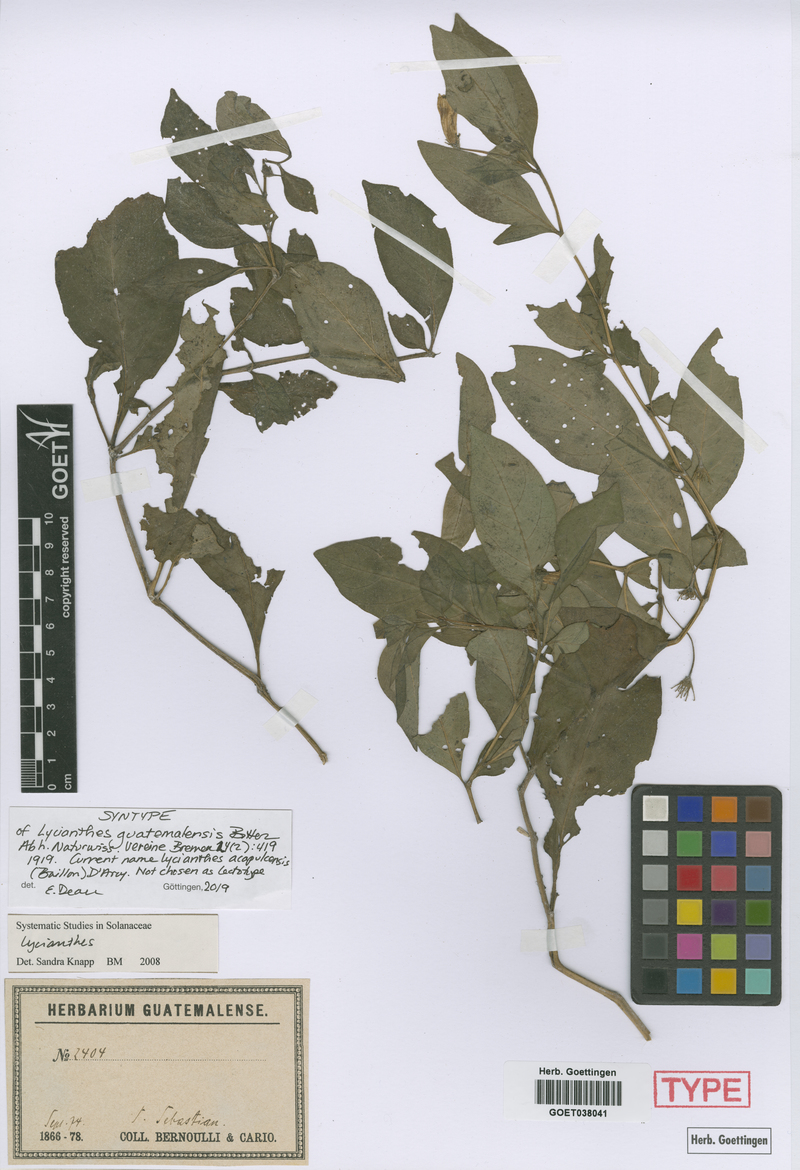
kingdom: Plantae
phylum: Tracheophyta
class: Magnoliopsida
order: Solanales
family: Solanaceae
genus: Lycianthes
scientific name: Lycianthes acapulcensis
